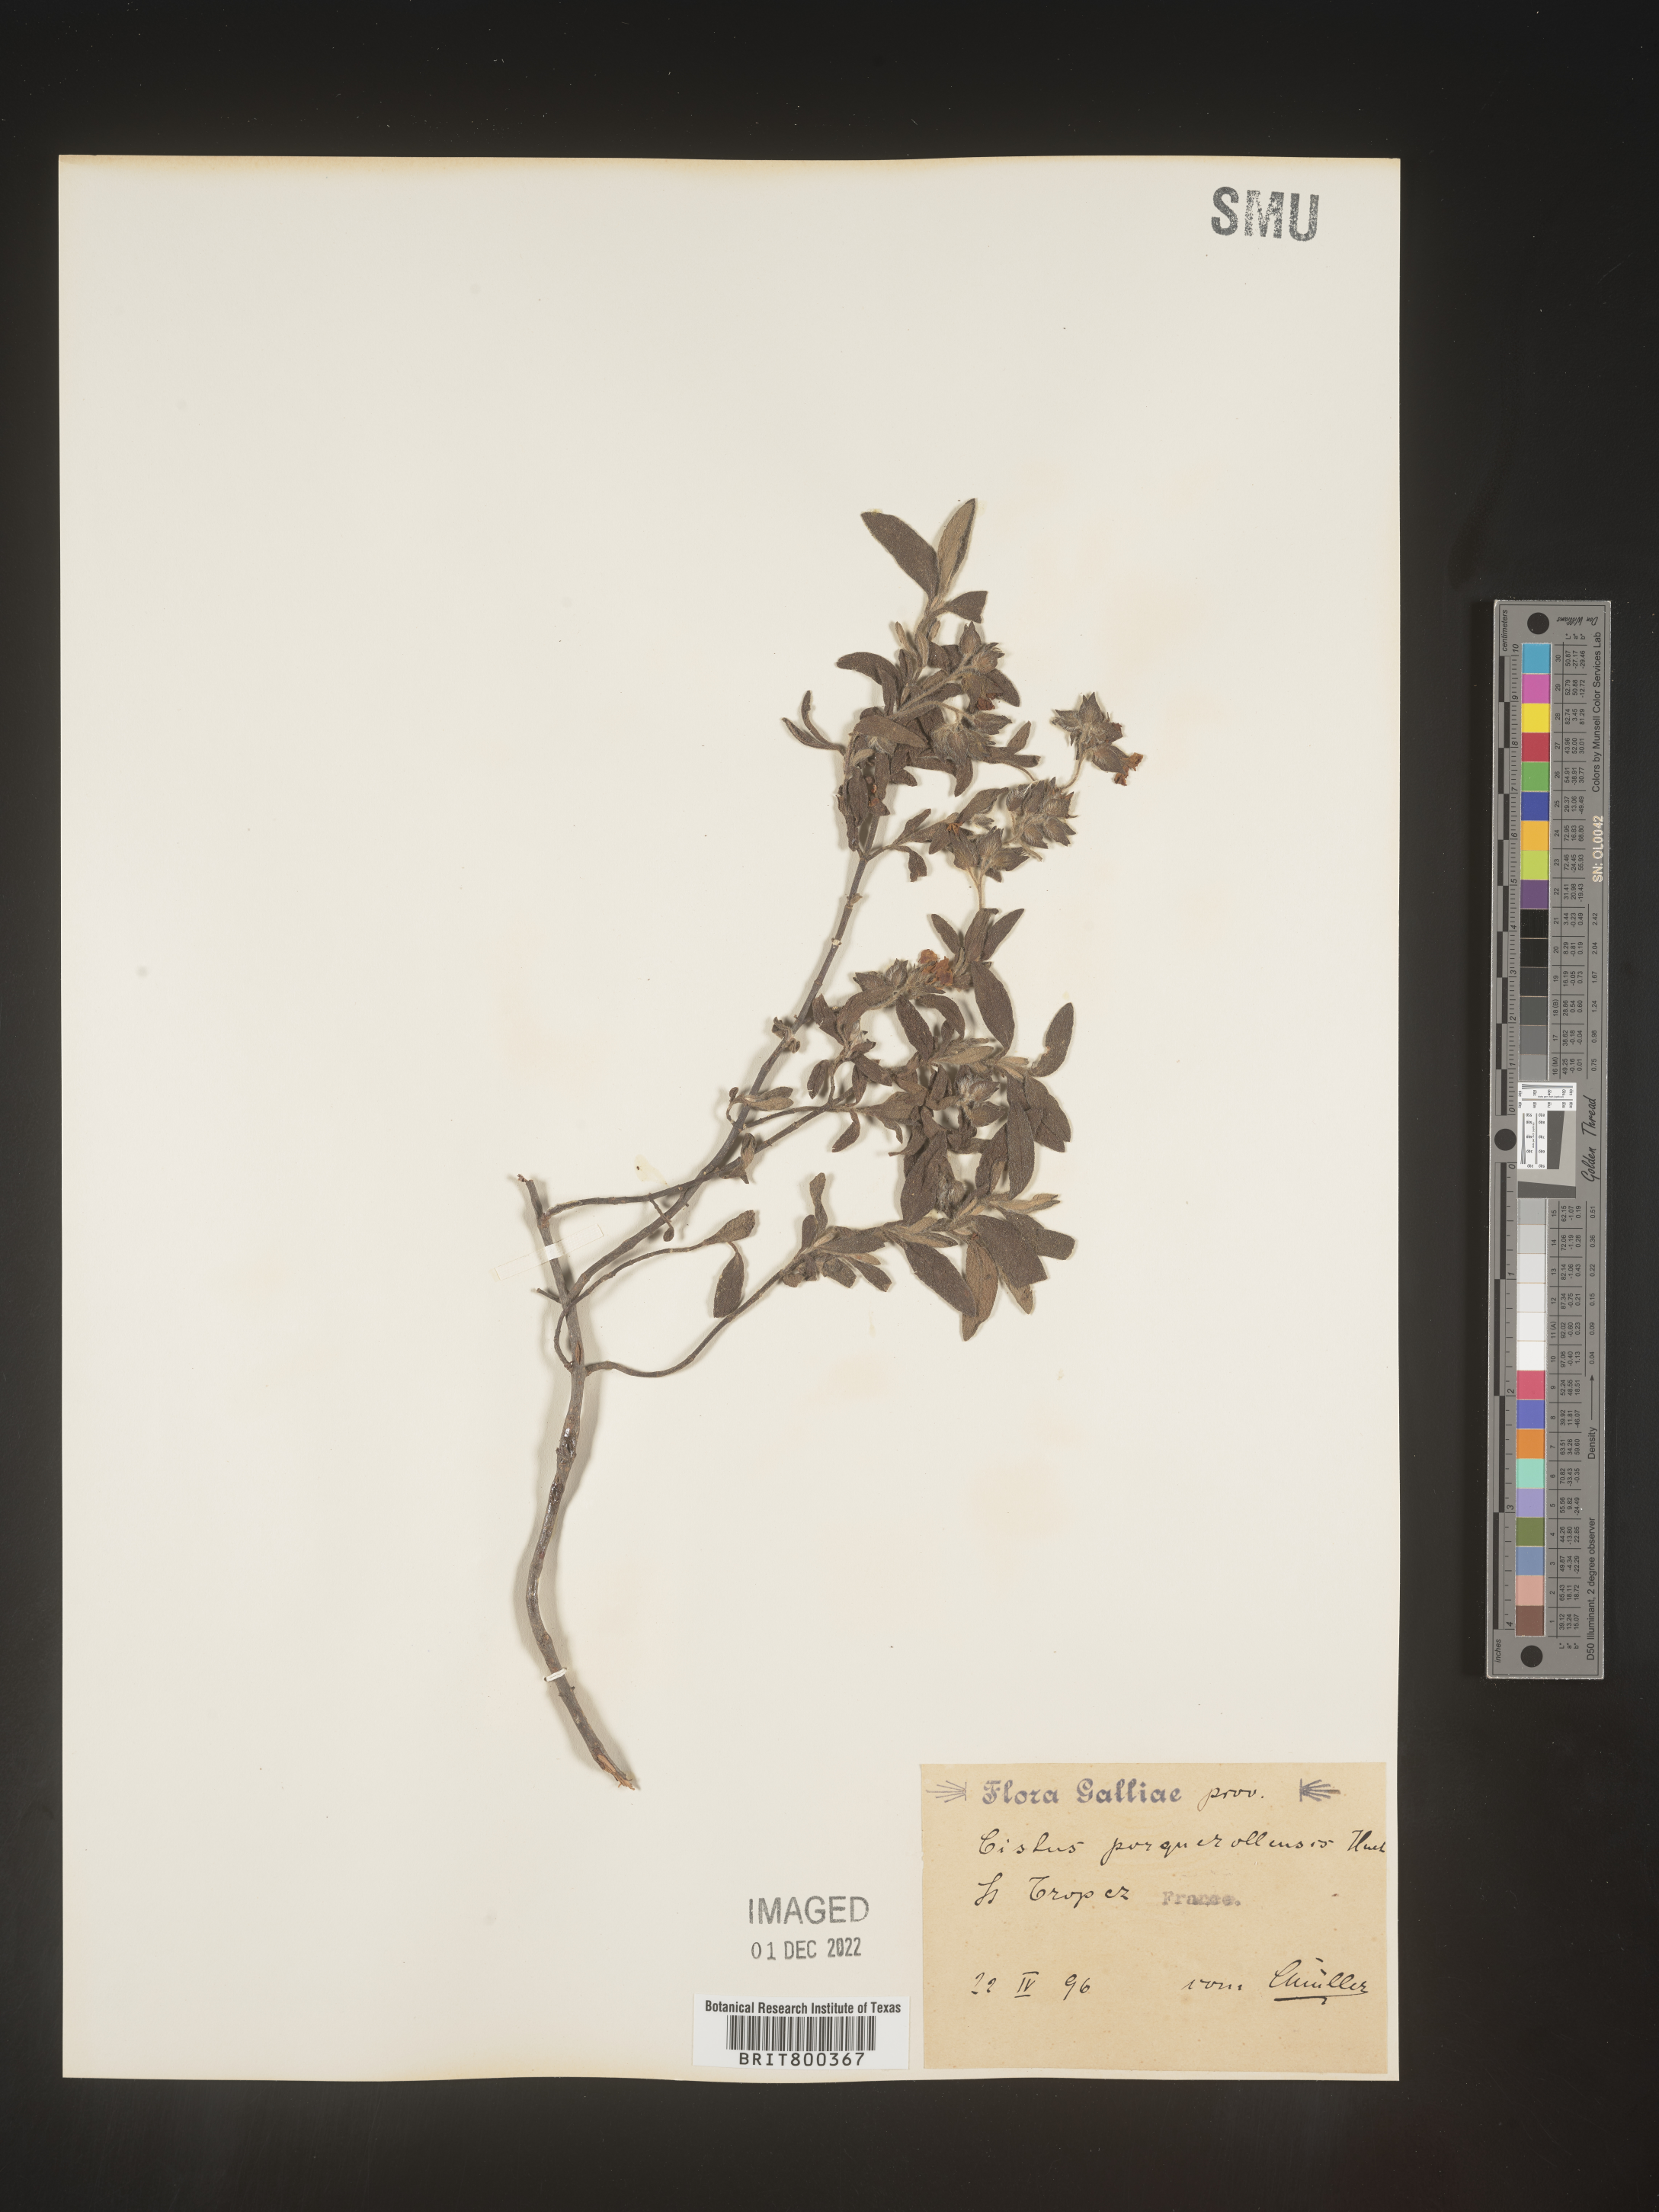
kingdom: Plantae
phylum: Tracheophyta
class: Magnoliopsida
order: Malvales
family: Cistaceae
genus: Cistus
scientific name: Cistus
